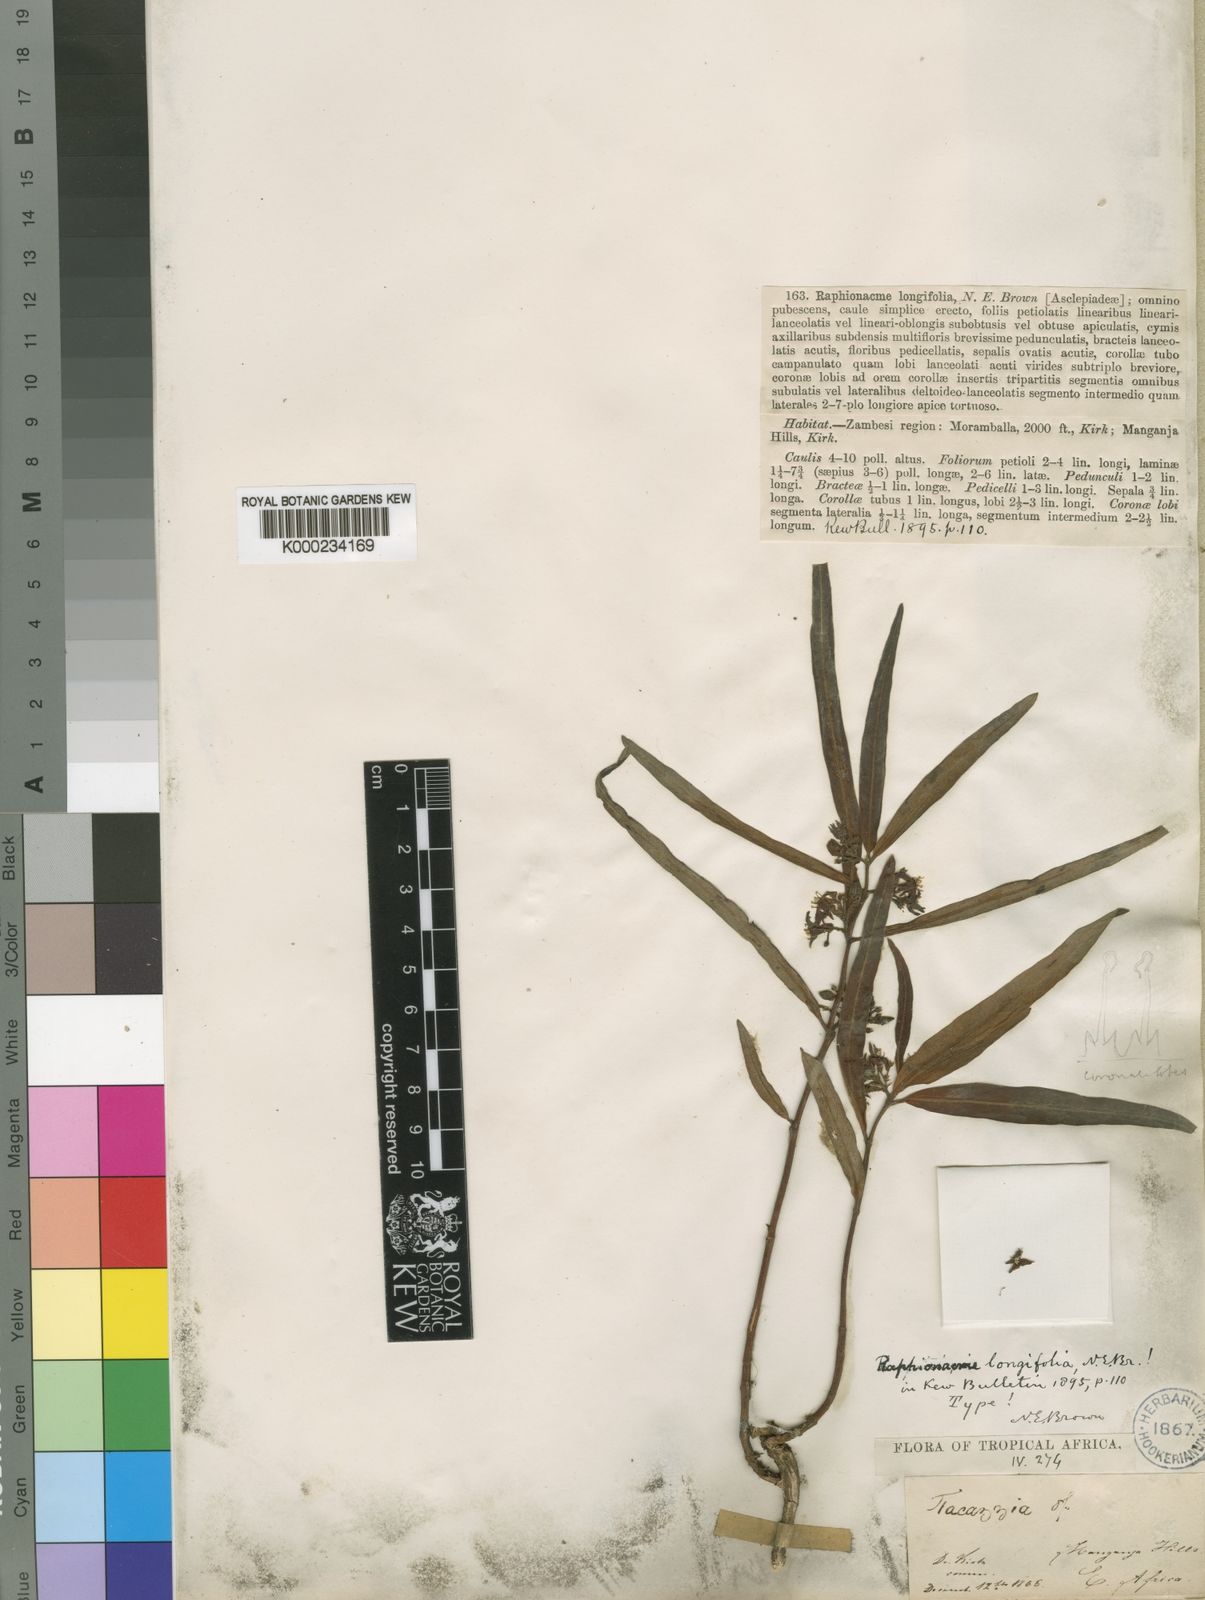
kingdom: Plantae
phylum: Tracheophyta
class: Magnoliopsida
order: Gentianales
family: Apocynaceae
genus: Raphionacme
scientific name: Raphionacme longifolia
